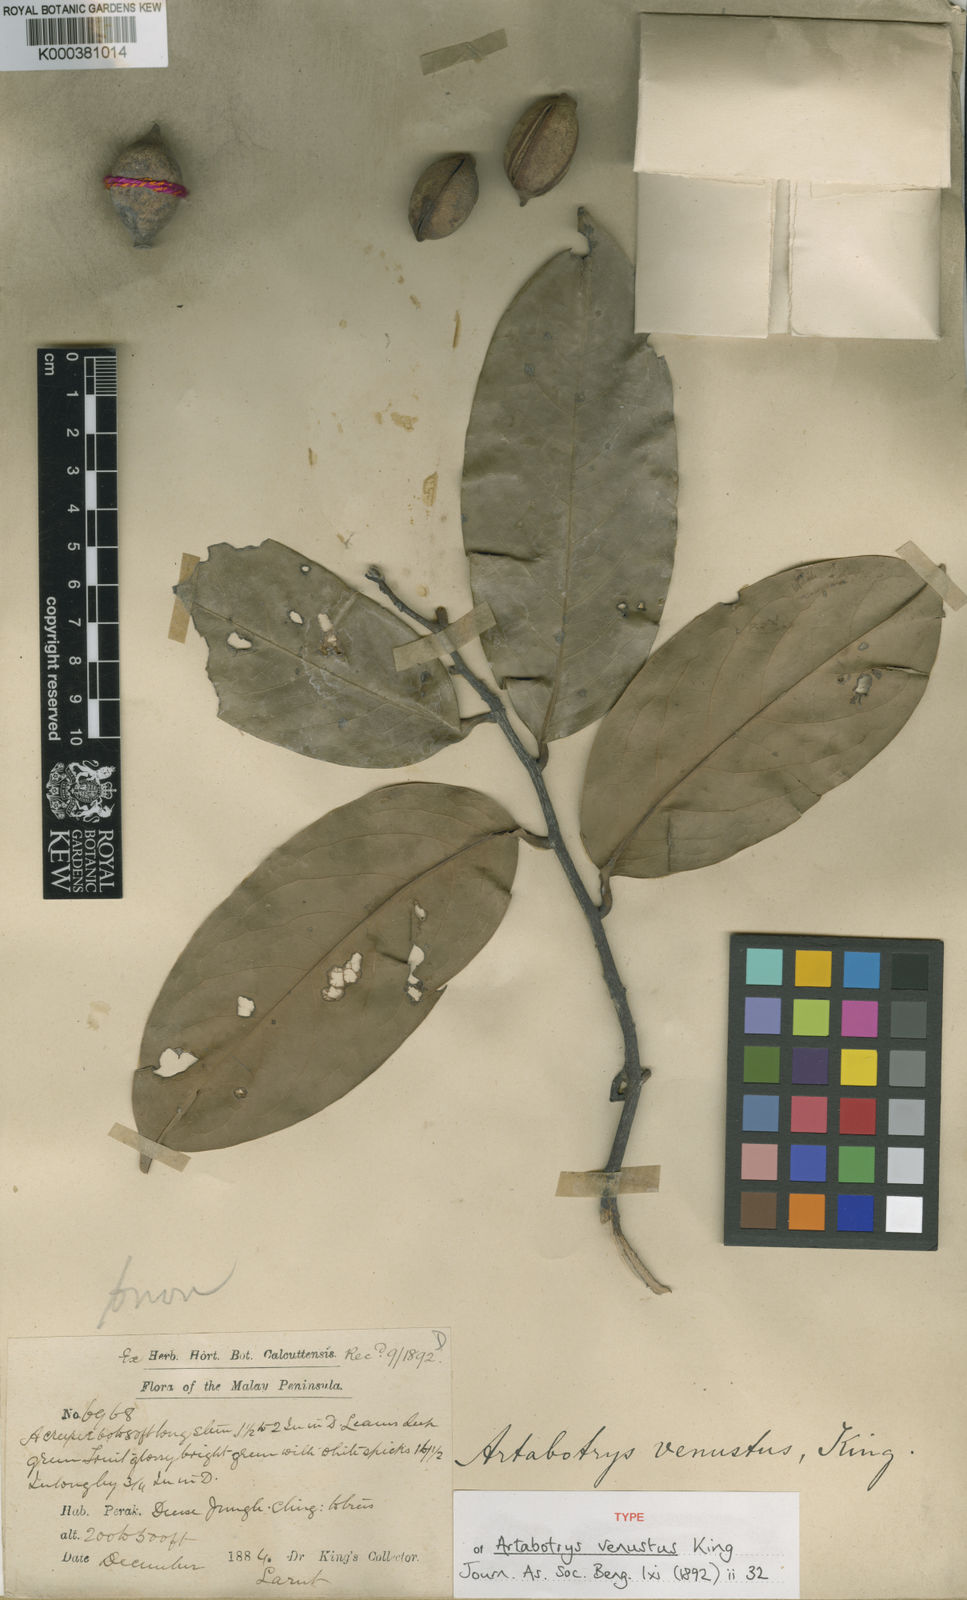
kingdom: Plantae
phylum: Tracheophyta
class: Magnoliopsida
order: Magnoliales
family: Annonaceae
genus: Artabotrys
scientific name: Artabotrys venustus
